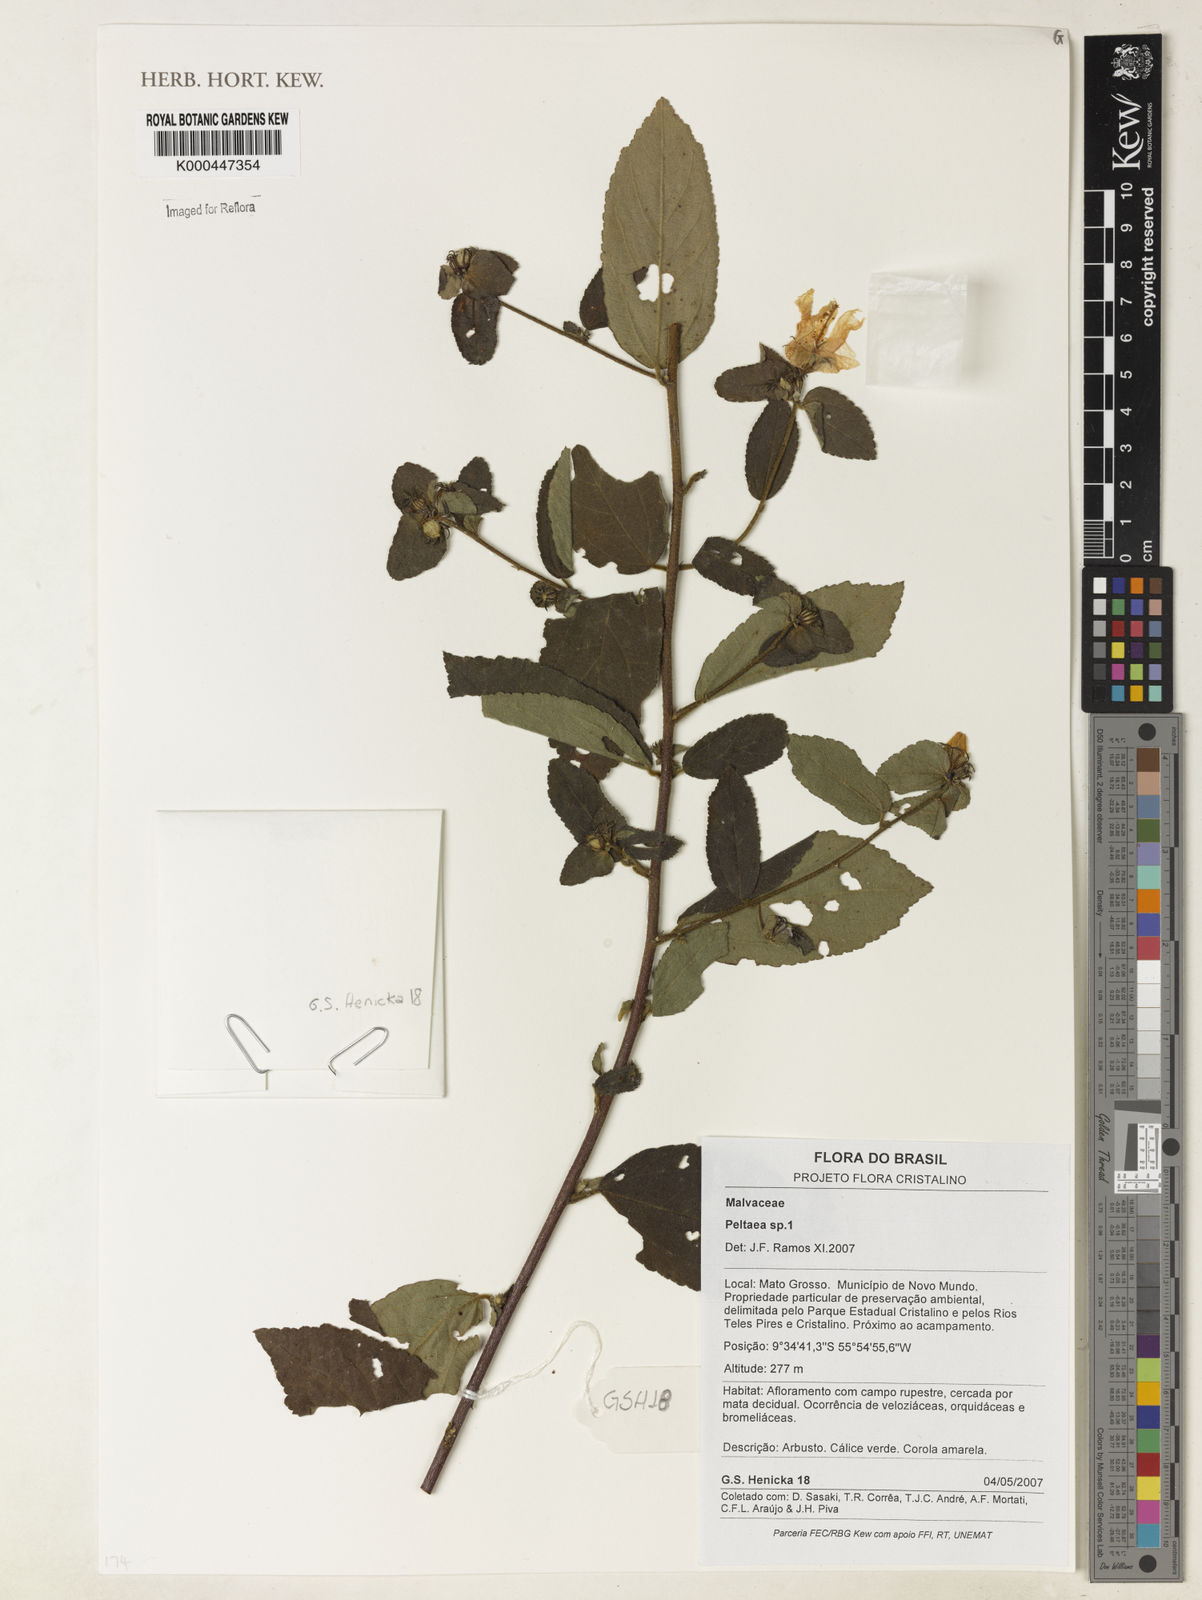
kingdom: Plantae
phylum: Tracheophyta
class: Magnoliopsida
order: Malvales
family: Malvaceae
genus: Peltaea
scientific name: Peltaea
